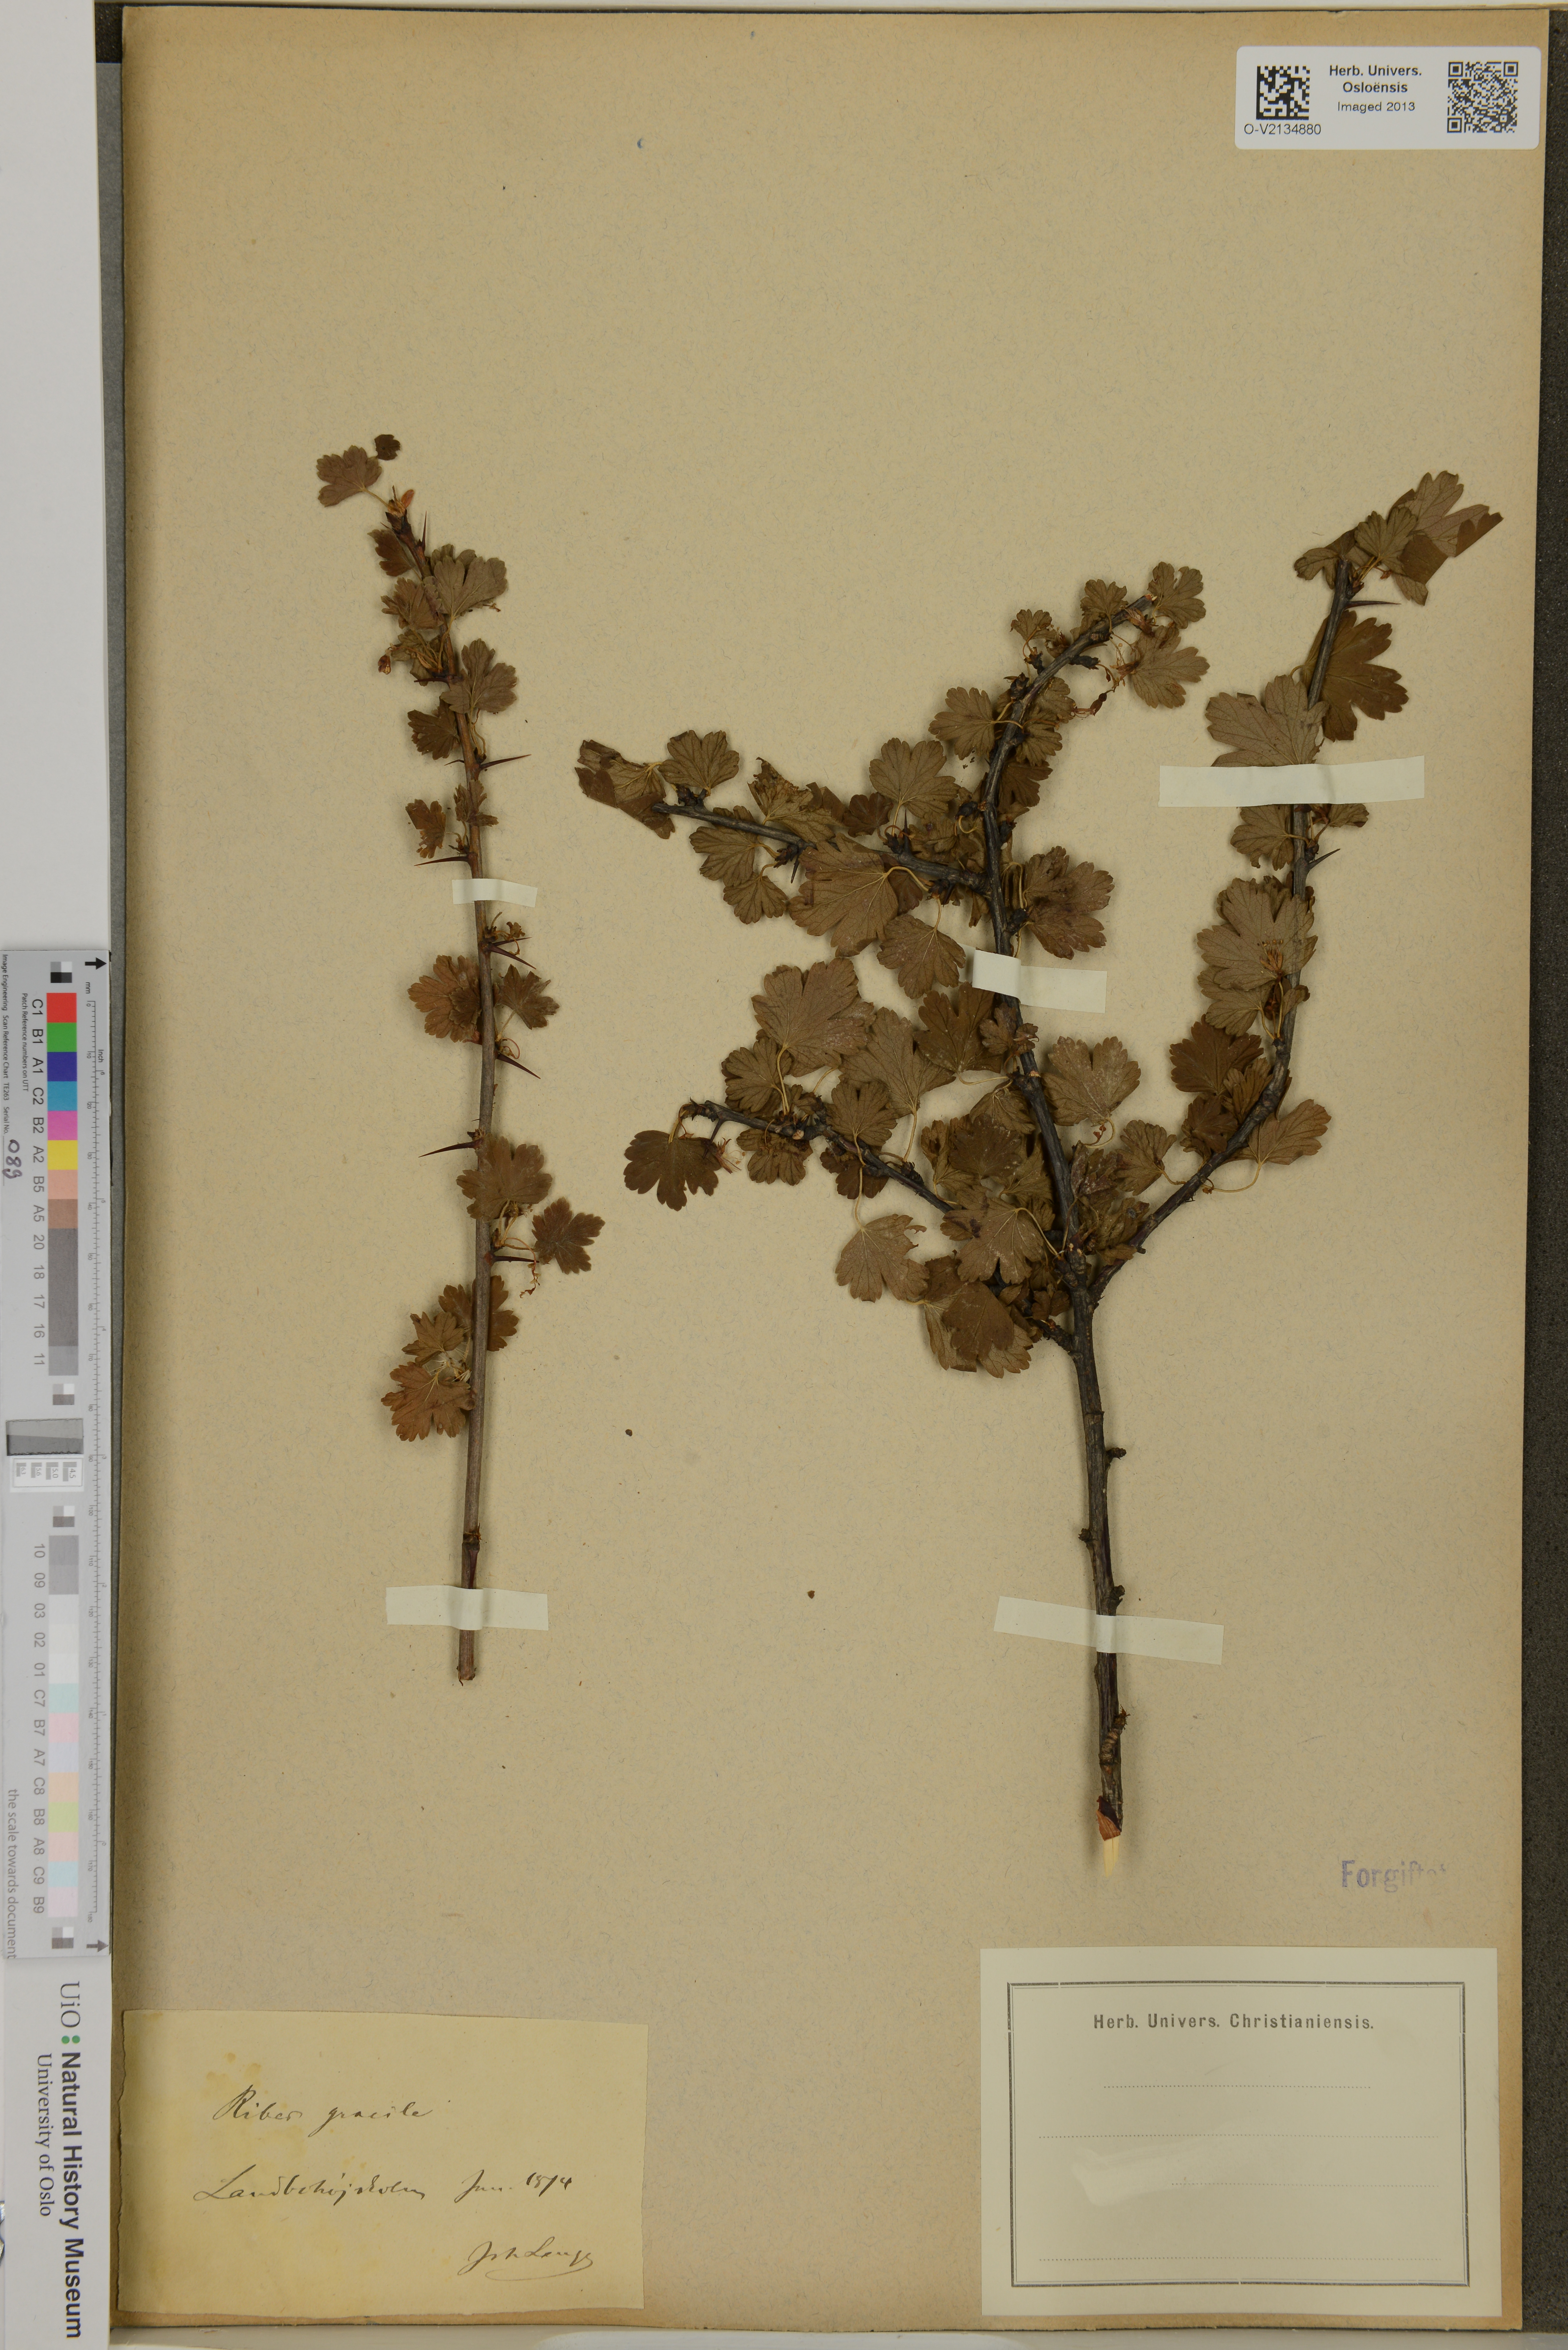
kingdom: Plantae
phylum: Tracheophyta
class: Magnoliopsida
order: Saxifragales
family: Grossulariaceae
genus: Ribes
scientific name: Ribes
